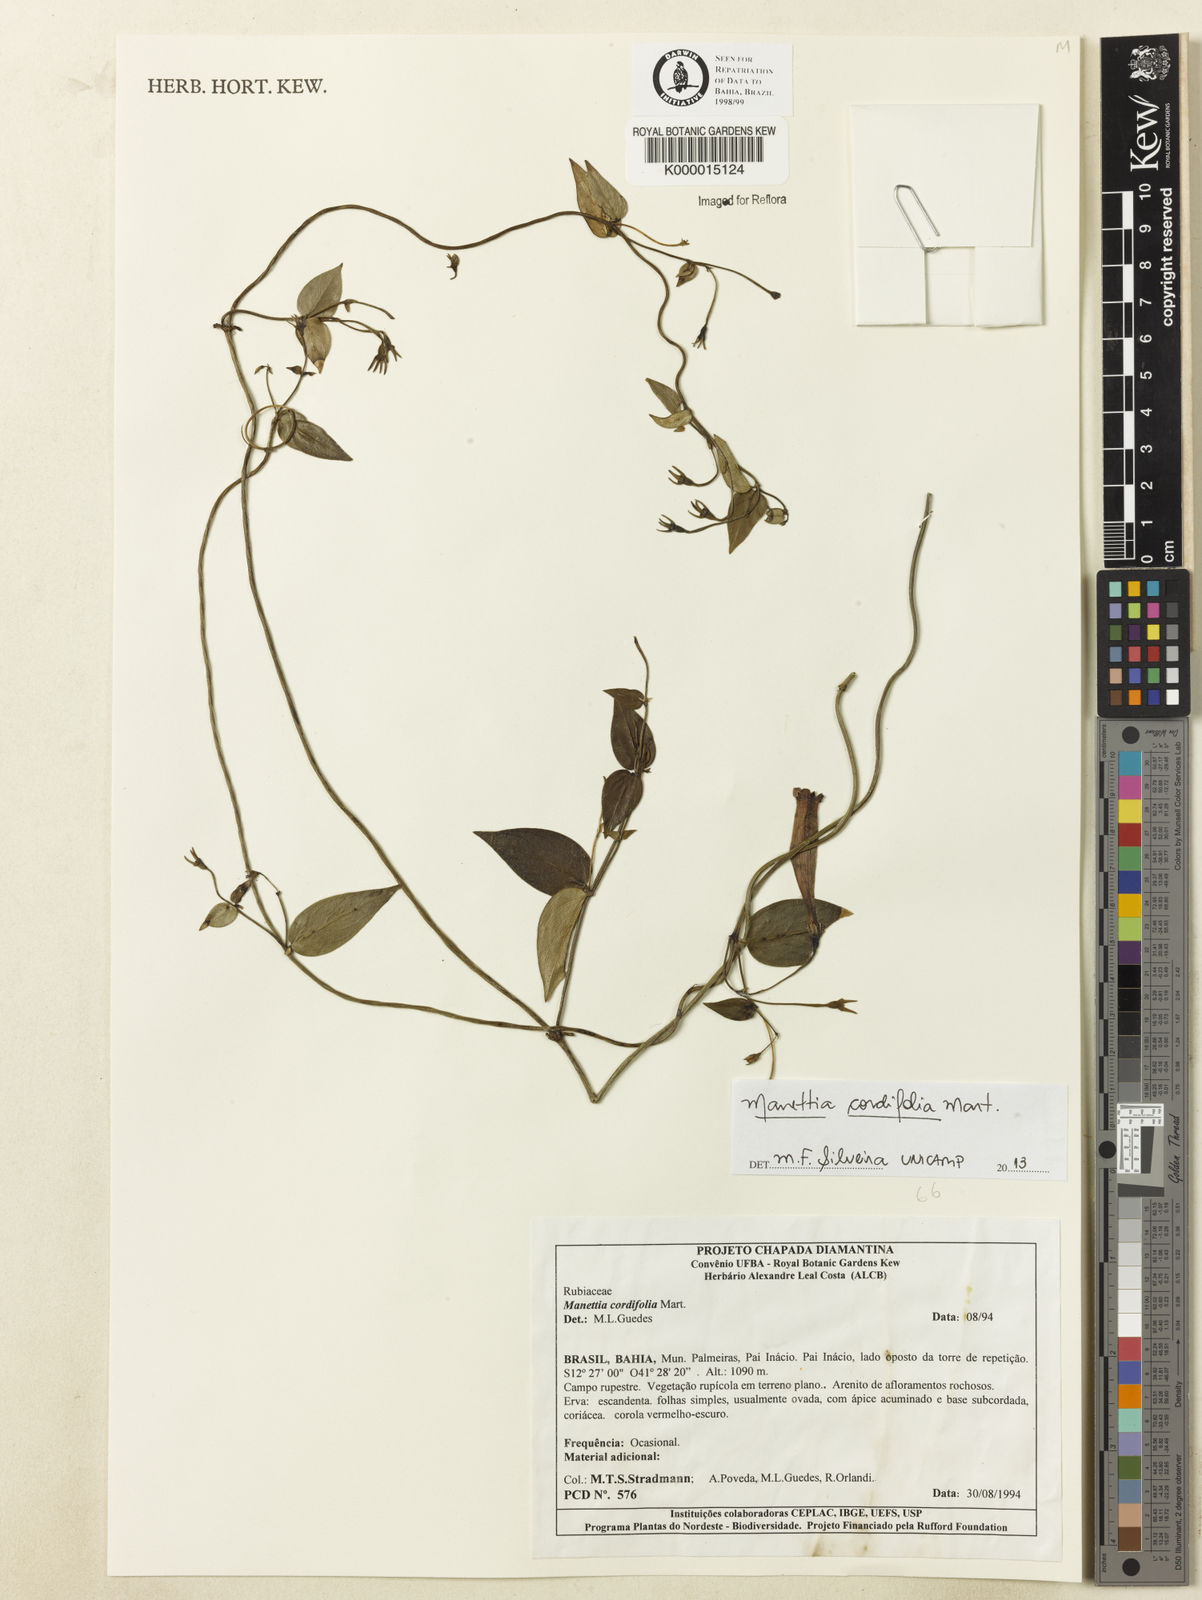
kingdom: Plantae
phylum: Tracheophyta
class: Magnoliopsida
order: Gentianales
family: Rubiaceae
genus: Manettia
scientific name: Manettia cordifolia
